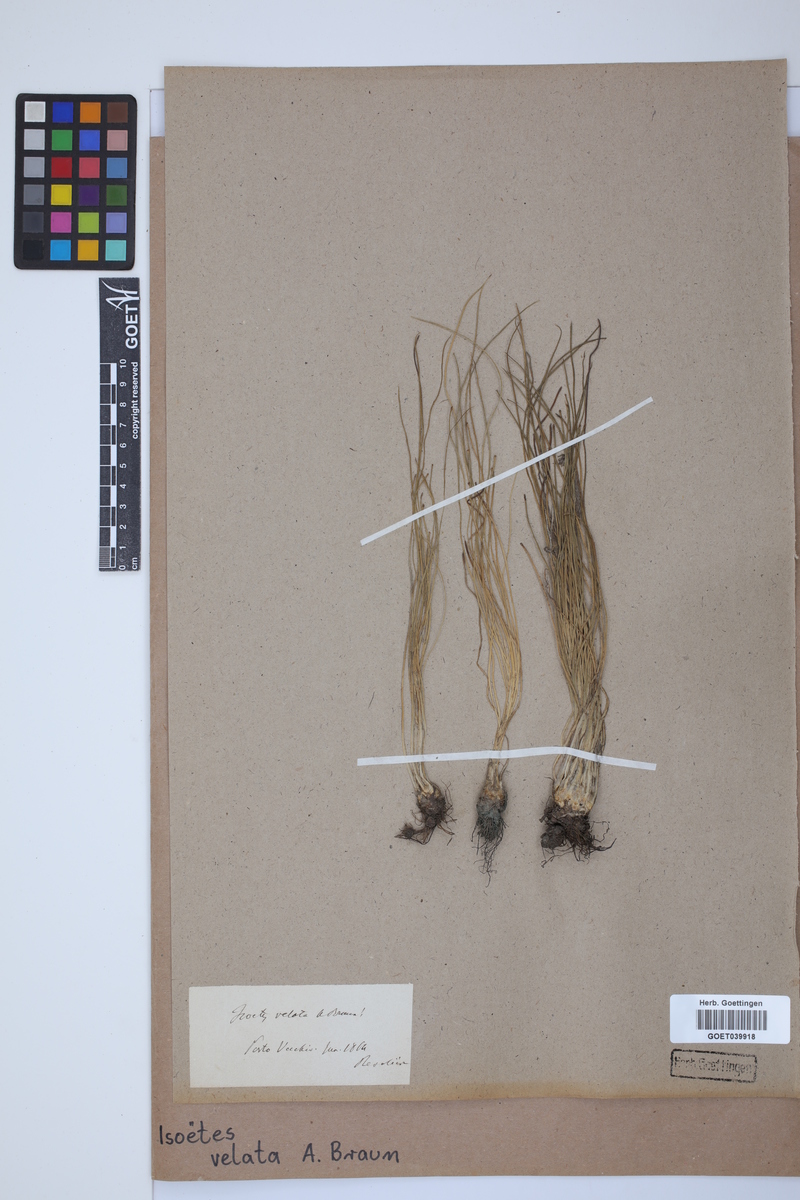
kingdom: Plantae
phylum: Tracheophyta
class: Lycopodiopsida
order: Isoetales
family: Isoetaceae
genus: Isoetes
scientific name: Isoetes longissima
